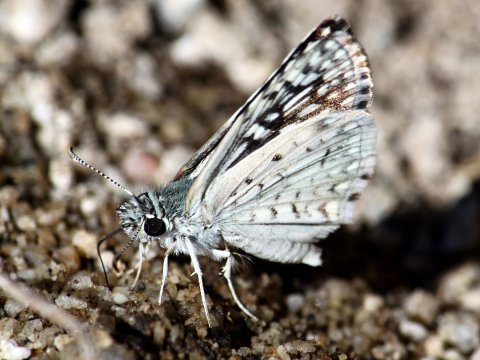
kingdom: Animalia
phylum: Arthropoda
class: Insecta
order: Lepidoptera
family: Hesperiidae
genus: Pyrgus
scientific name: Pyrgus oileus
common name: Desert Checkered-Skipper
